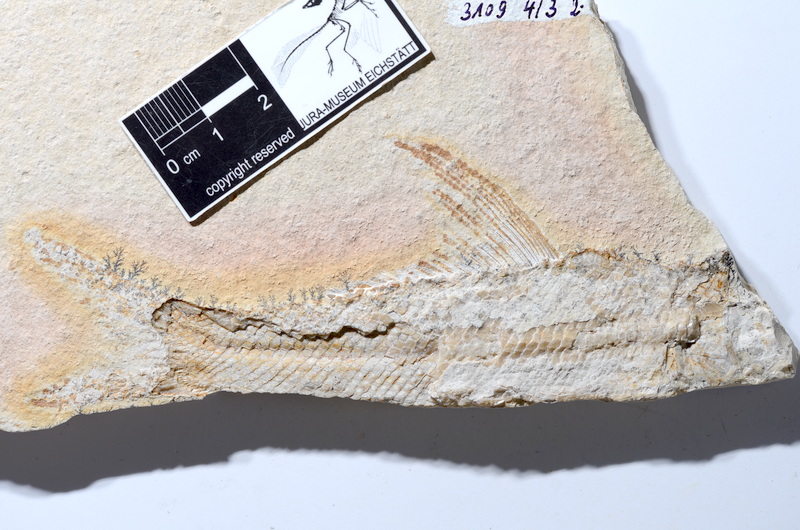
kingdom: Animalia
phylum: Chordata
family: Ophiopsiellidae
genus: Ophiopsiella
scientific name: Ophiopsiella procera
